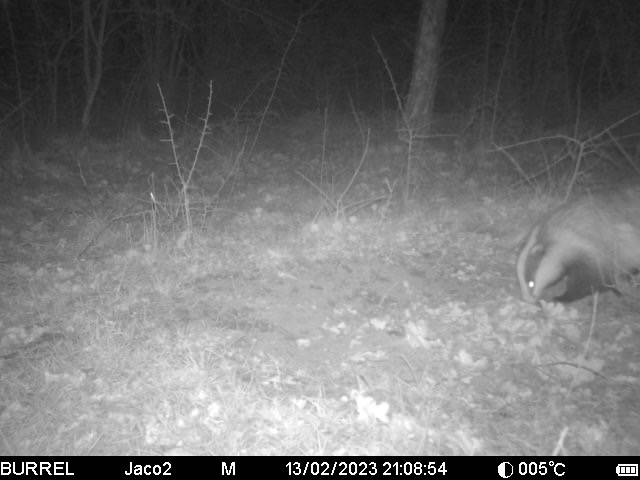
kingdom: Animalia
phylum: Chordata
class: Mammalia
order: Carnivora
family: Mustelidae
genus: Meles
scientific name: Meles meles
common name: Grævling
